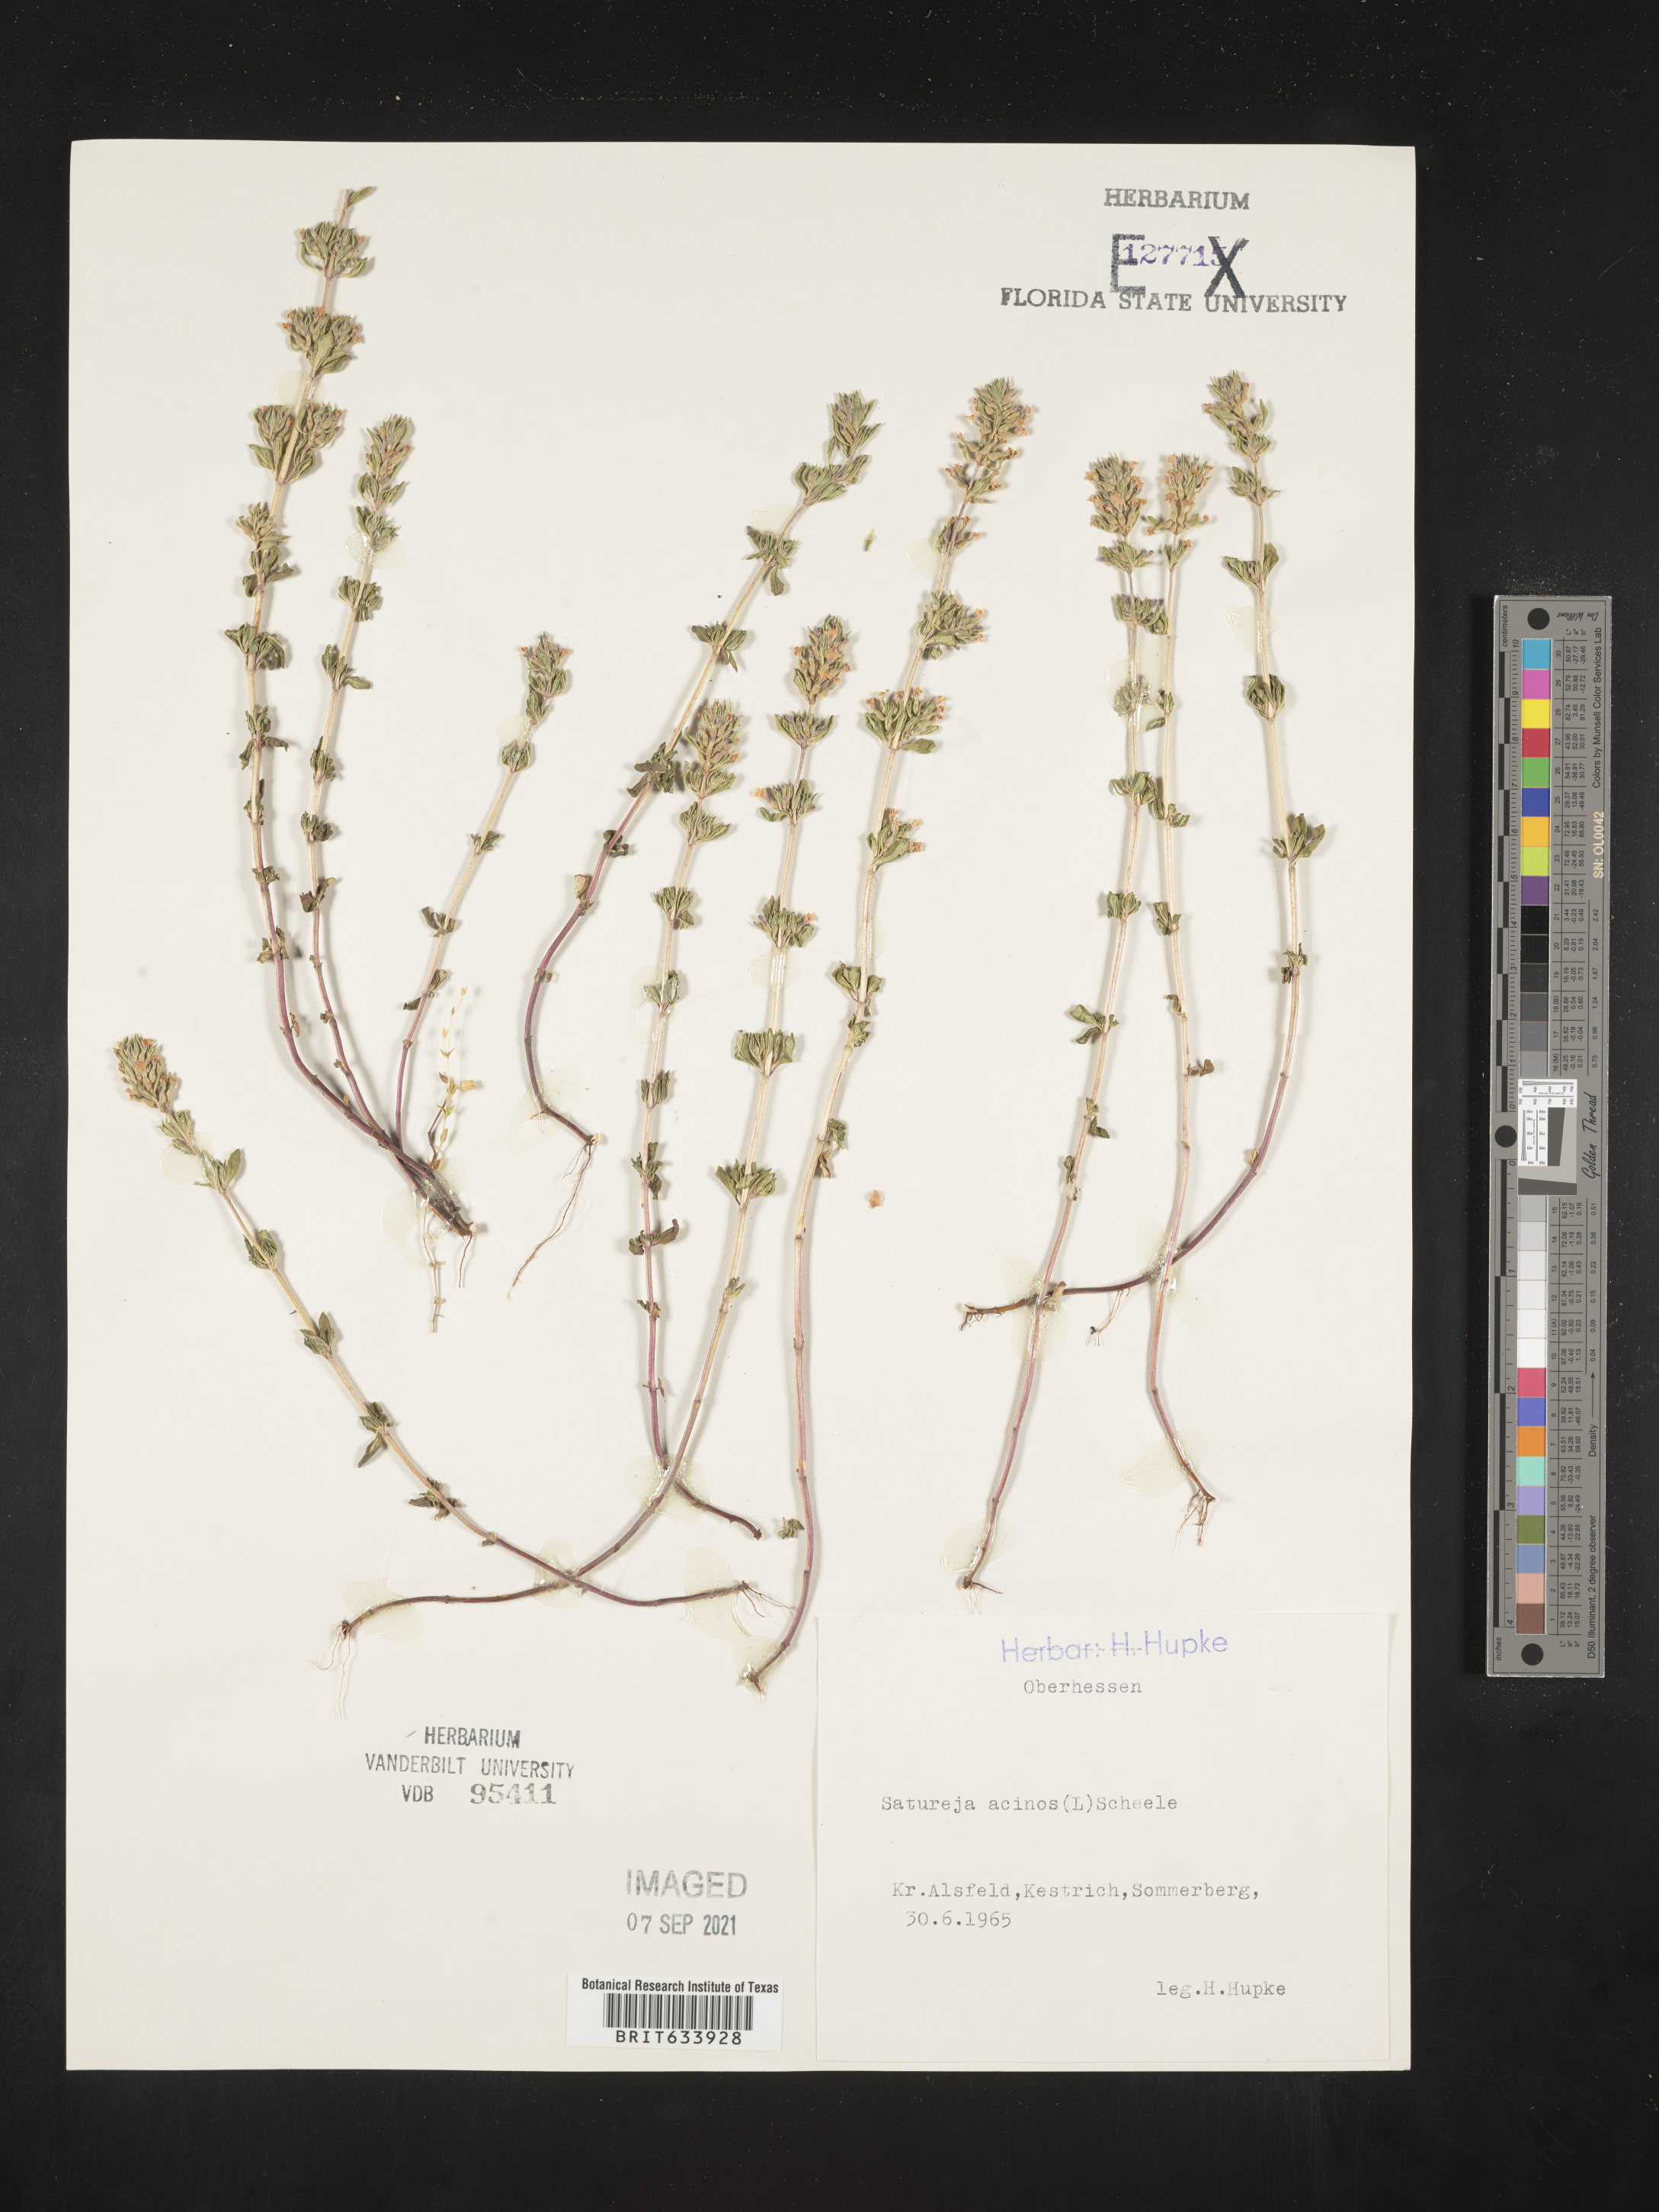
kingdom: Plantae
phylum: Tracheophyta
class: Magnoliopsida
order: Lamiales
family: Lamiaceae
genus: Satureja
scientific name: Satureja
